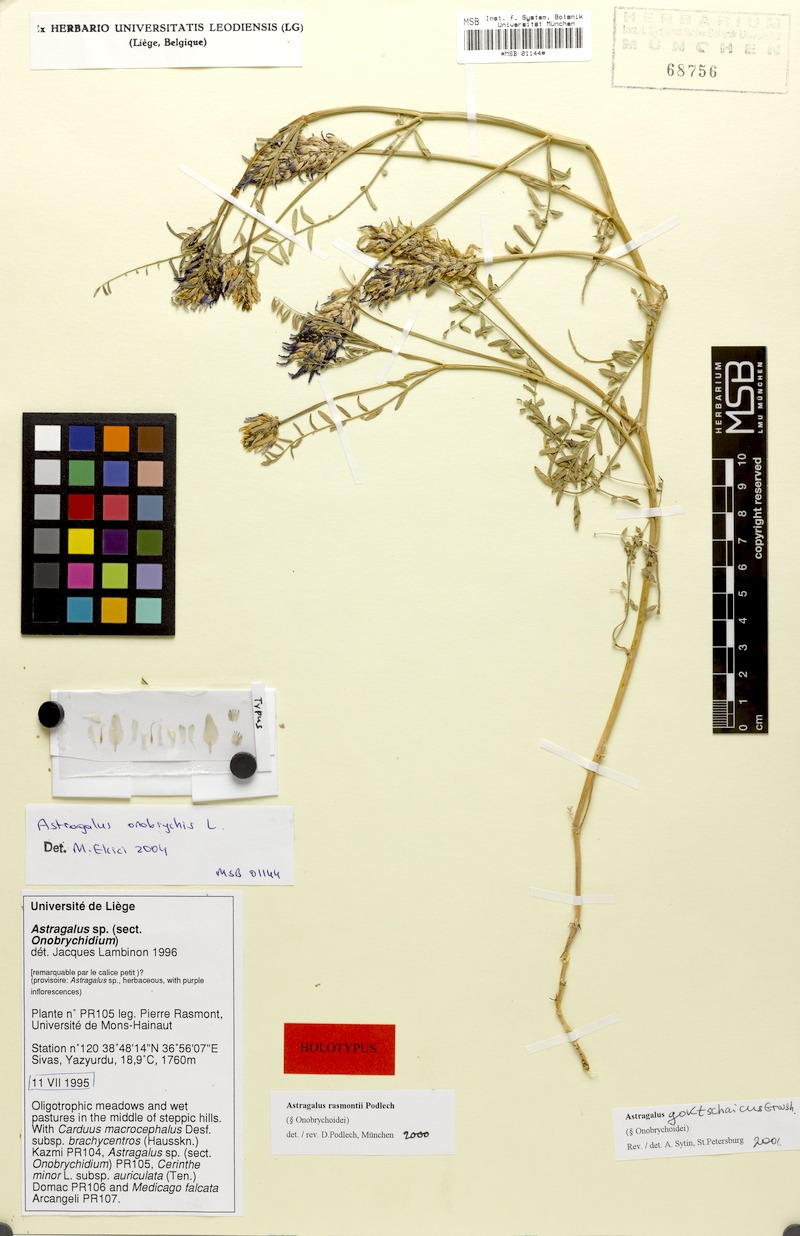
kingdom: Plantae
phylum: Tracheophyta
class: Magnoliopsida
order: Fabales
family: Fabaceae
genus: Astragalus
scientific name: Astragalus onobrychis
